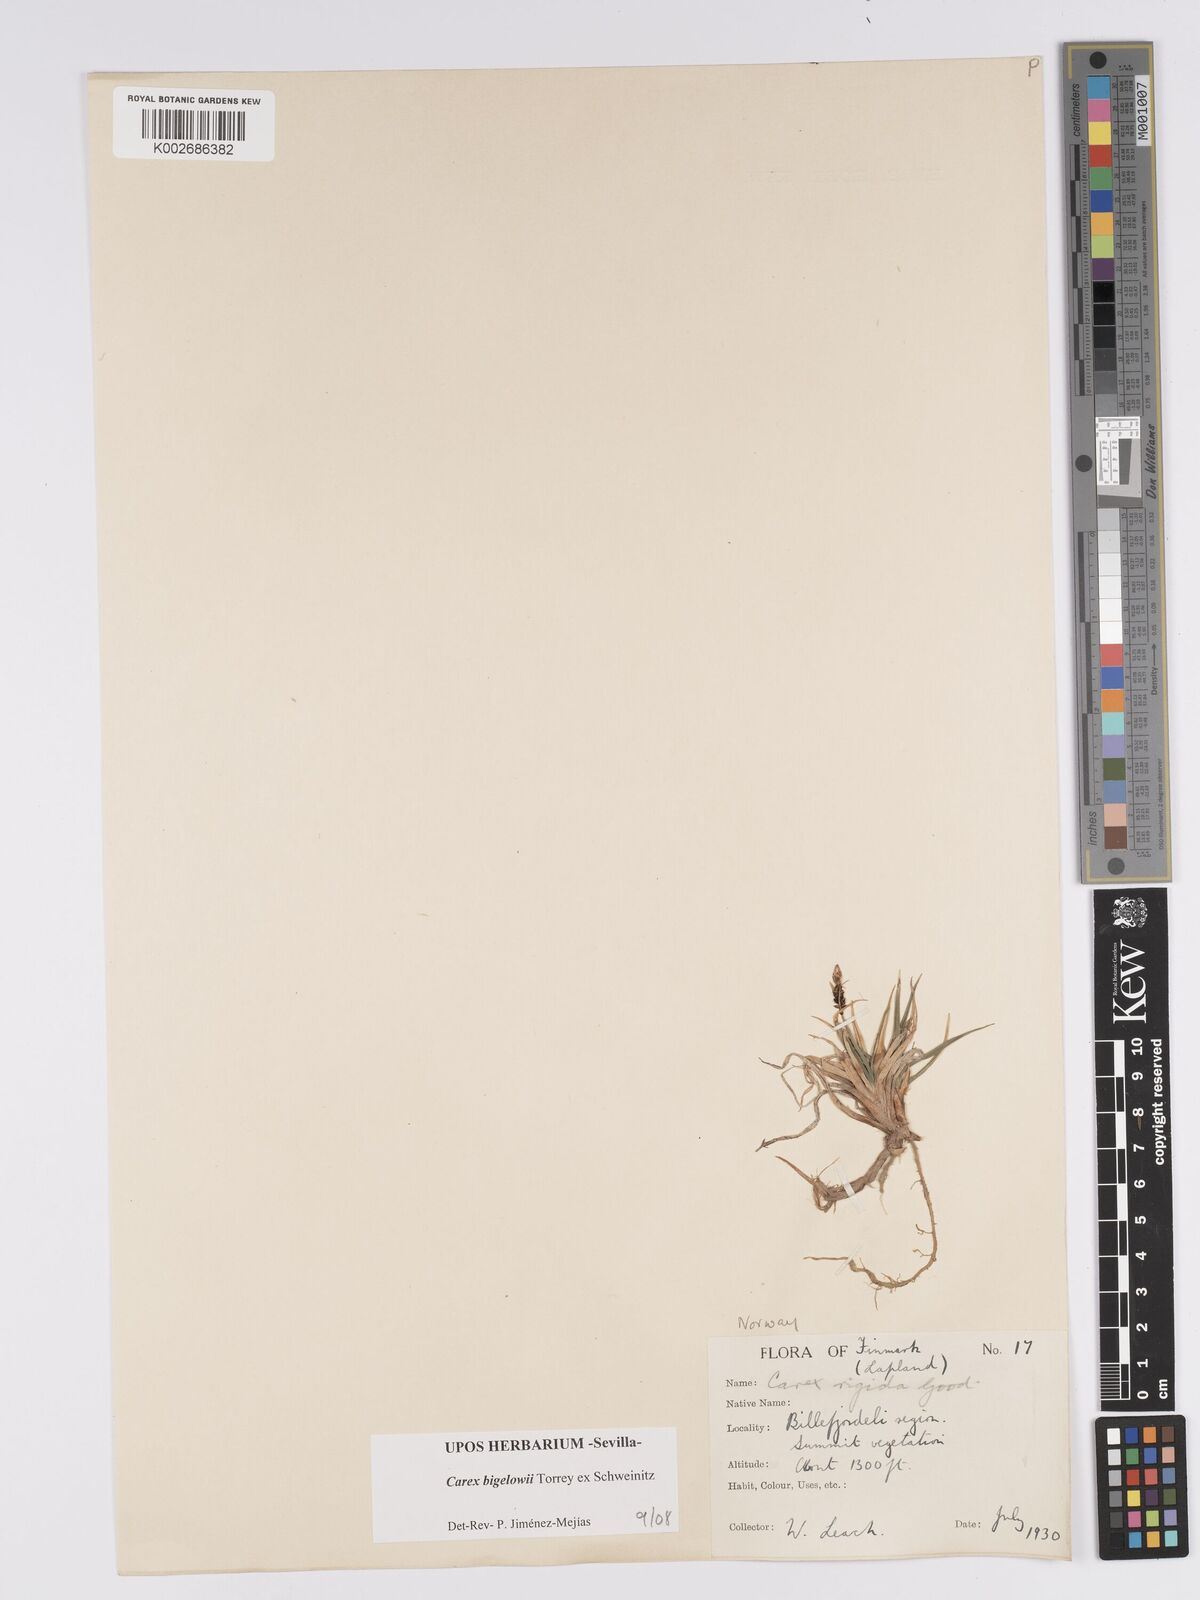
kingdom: Plantae
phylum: Tracheophyta
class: Liliopsida
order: Poales
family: Cyperaceae
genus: Carex
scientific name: Carex bigelowii
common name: Stiff sedge
